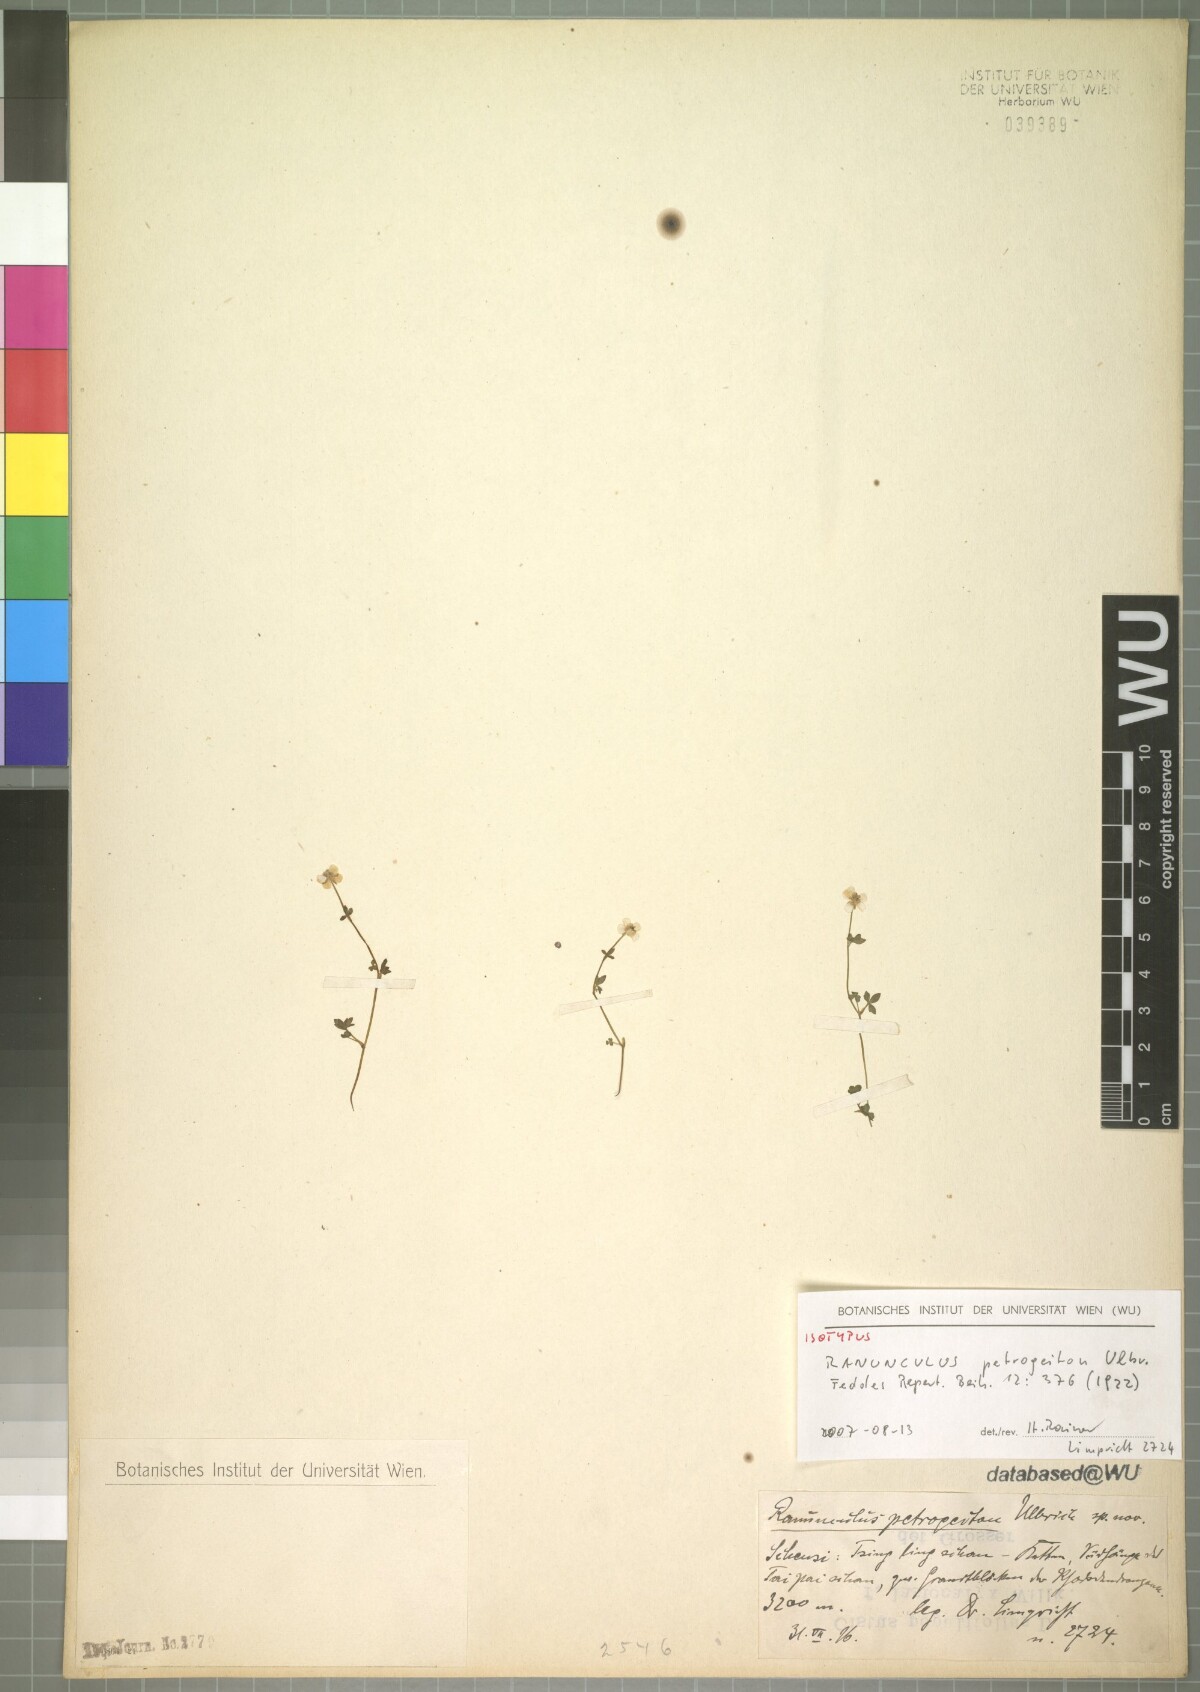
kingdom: Plantae
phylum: Tracheophyta
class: Magnoliopsida
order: Ranunculales
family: Ranunculaceae
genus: Ranunculus
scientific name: Ranunculus petrogeiton
